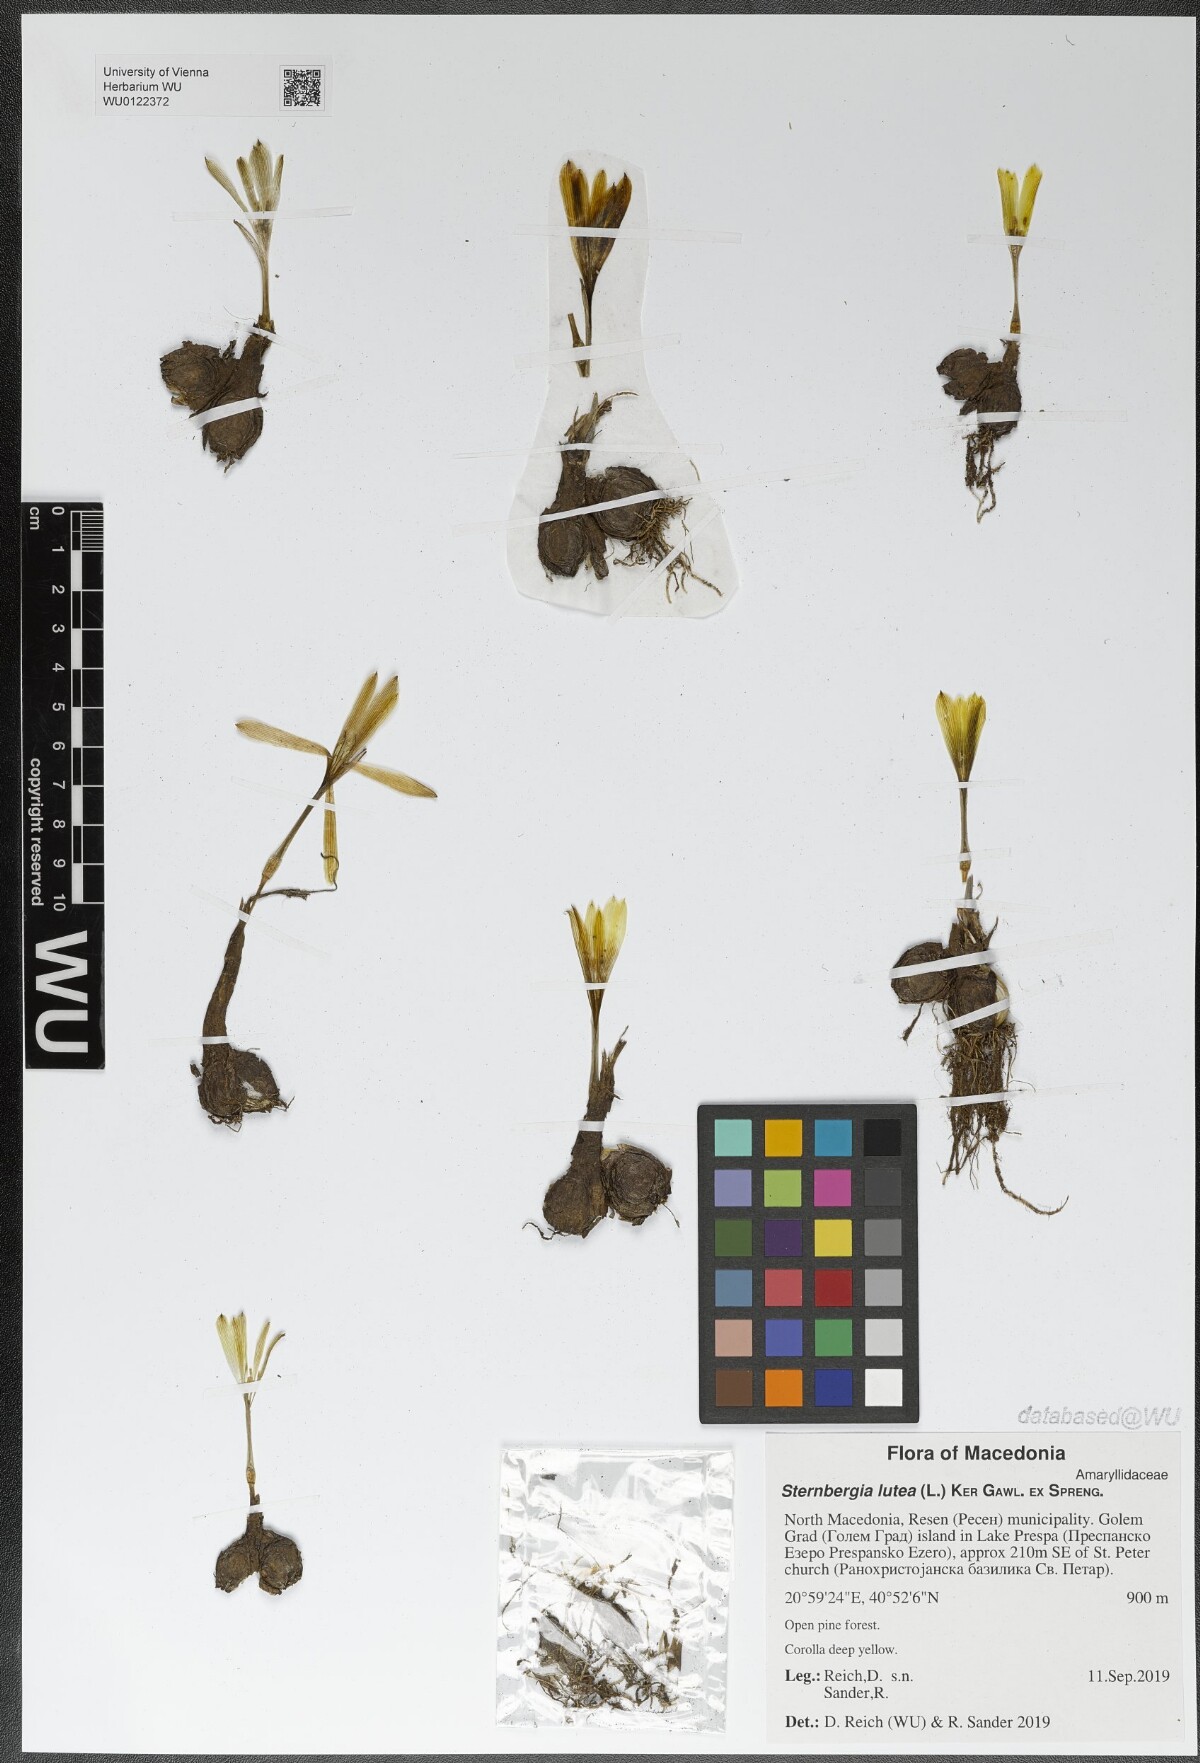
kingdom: Plantae
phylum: Tracheophyta
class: Liliopsida
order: Asparagales
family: Amaryllidaceae
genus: Sternbergia
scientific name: Sternbergia lutea
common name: Winter daffodil
